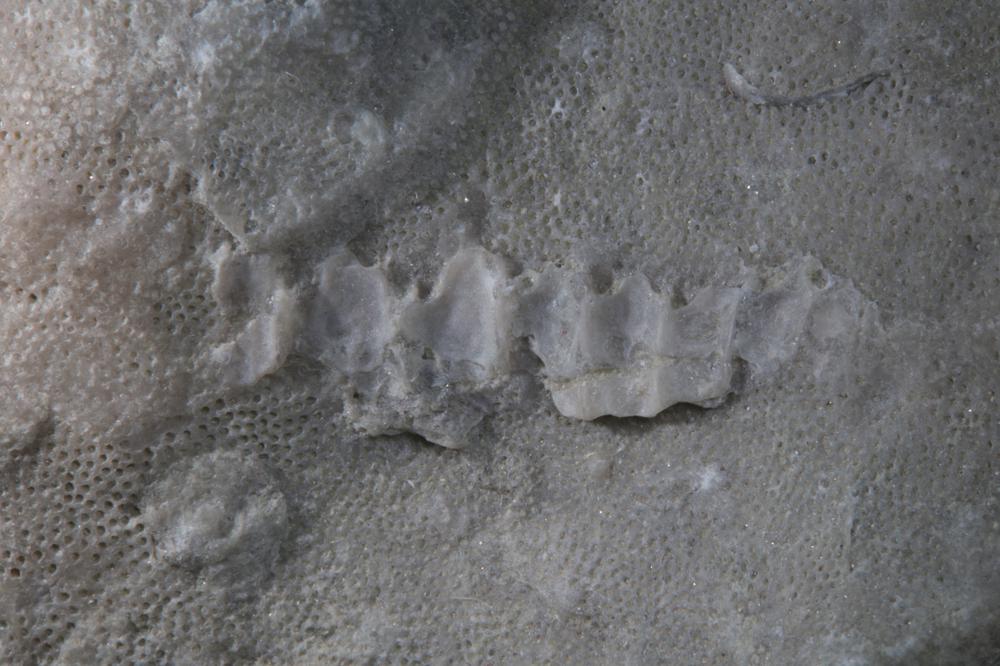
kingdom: Animalia
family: Cornulitidae
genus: Cornulites
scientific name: Cornulites
